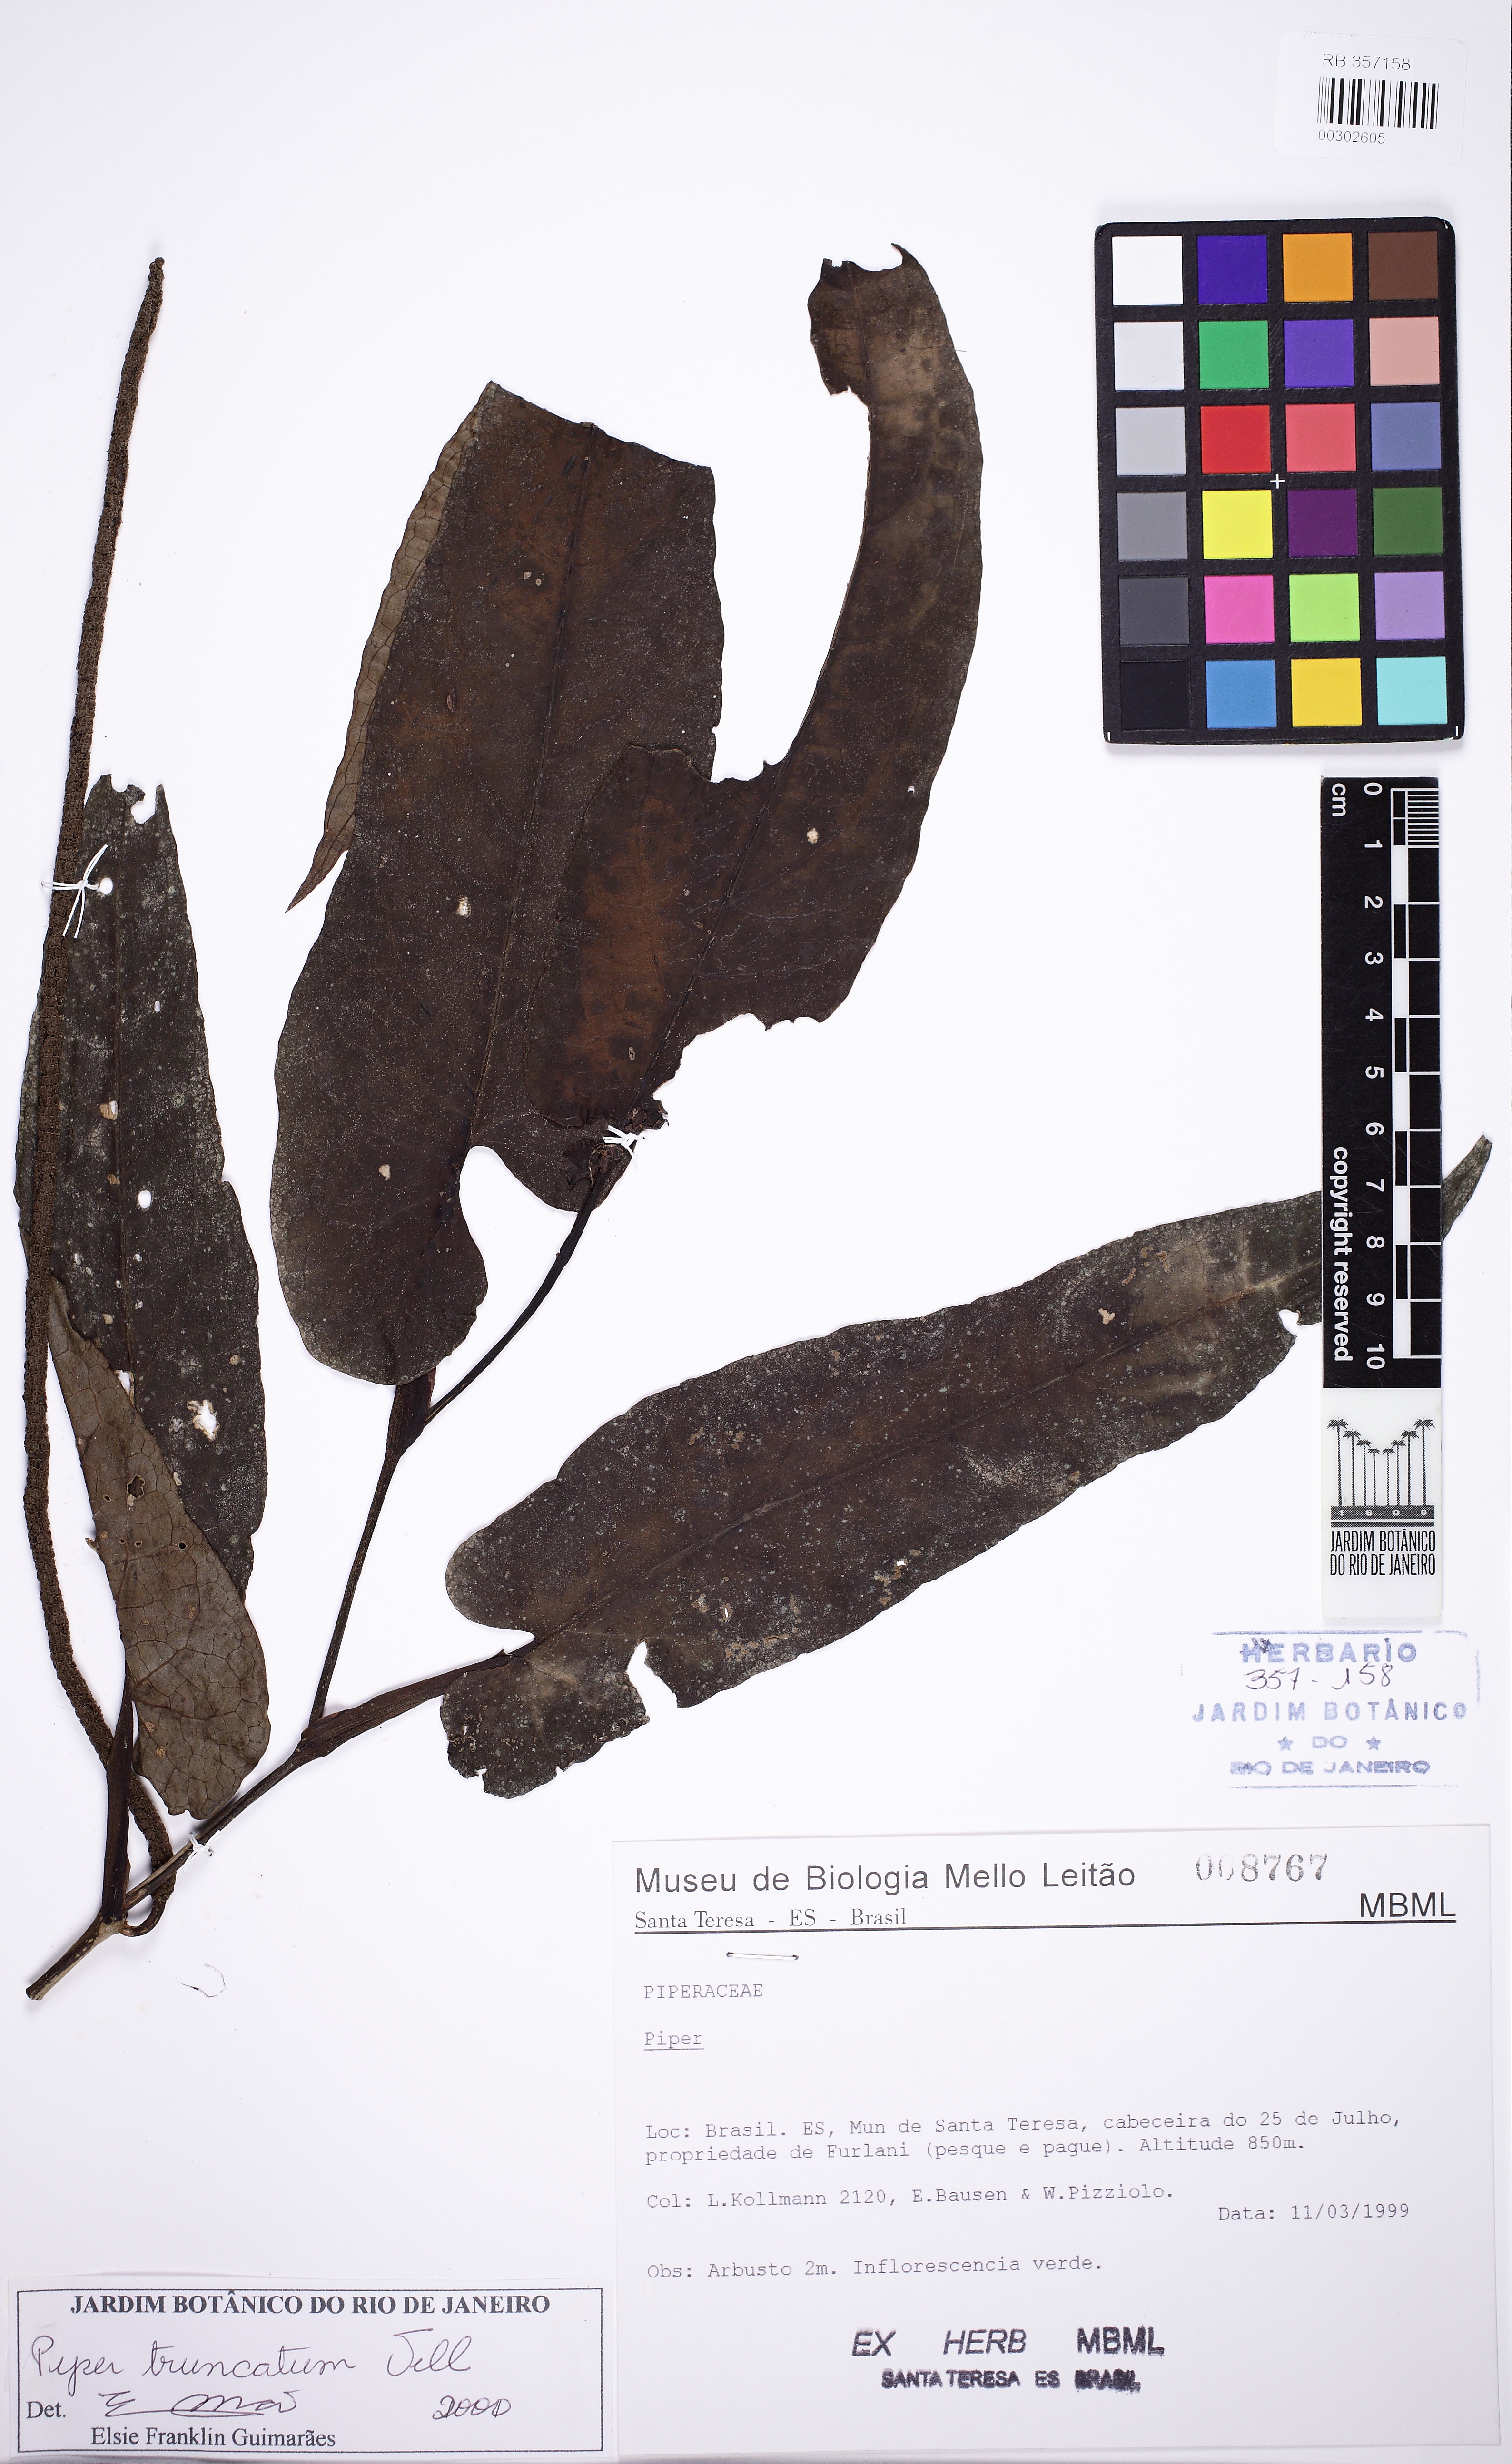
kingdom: Plantae
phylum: Tracheophyta
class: Magnoliopsida
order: Piperales
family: Piperaceae
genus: Piper
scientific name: Piper truncatum
